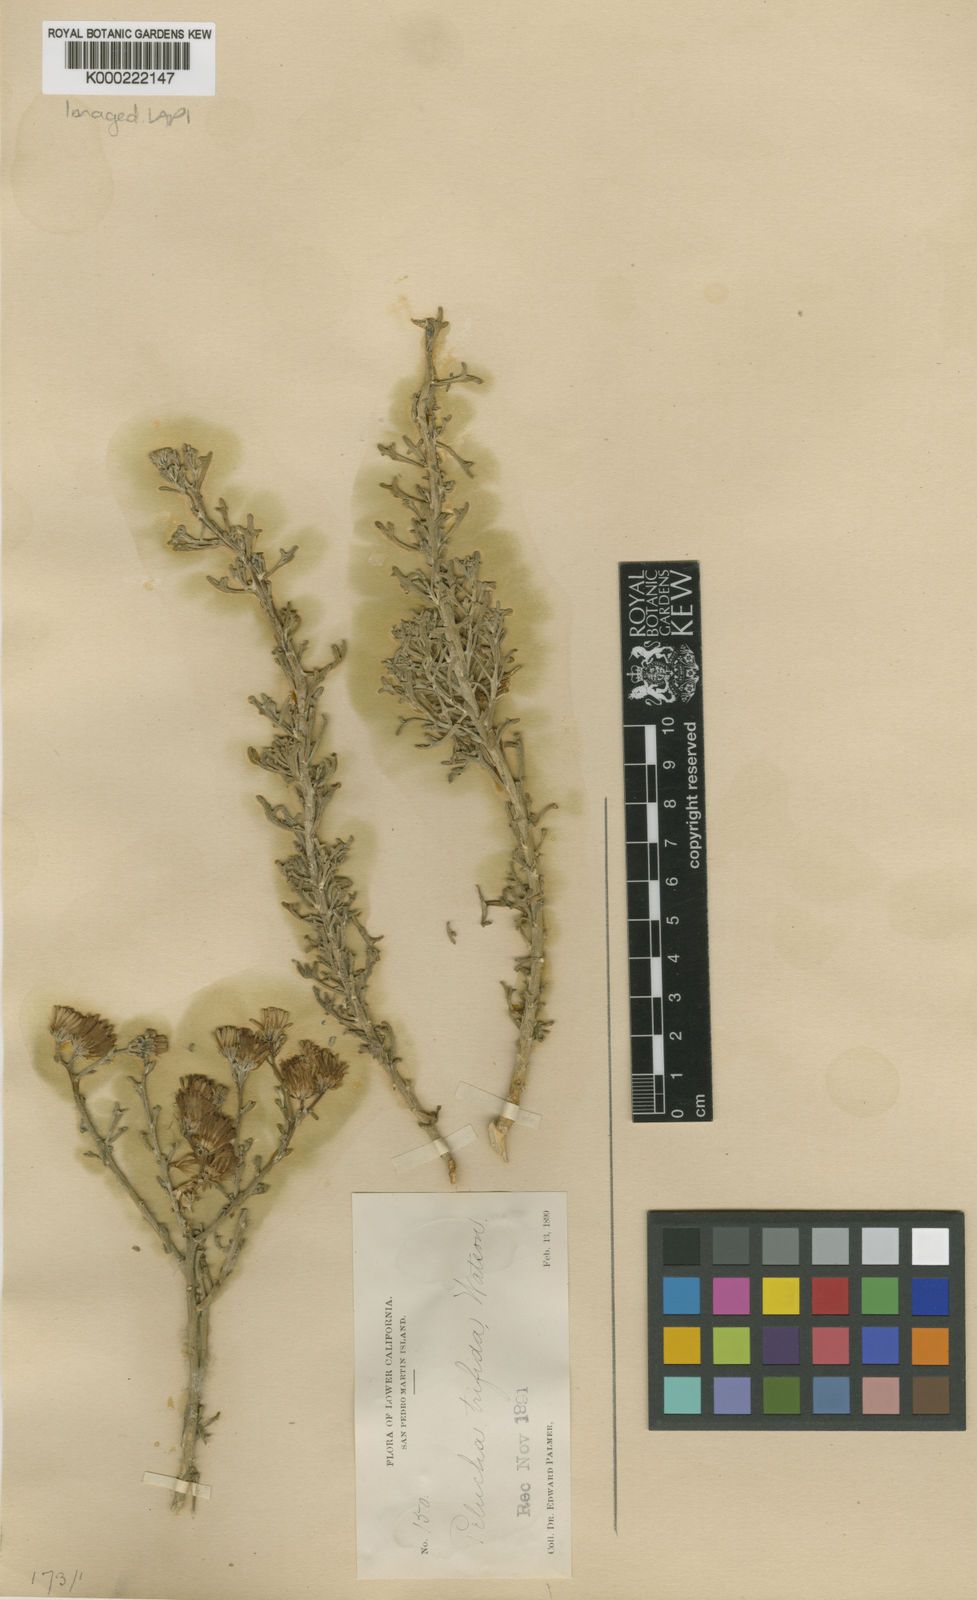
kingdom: Plantae
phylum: Tracheophyta
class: Magnoliopsida
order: Asterales
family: Asteraceae
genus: Pelucha
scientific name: Pelucha trifida
